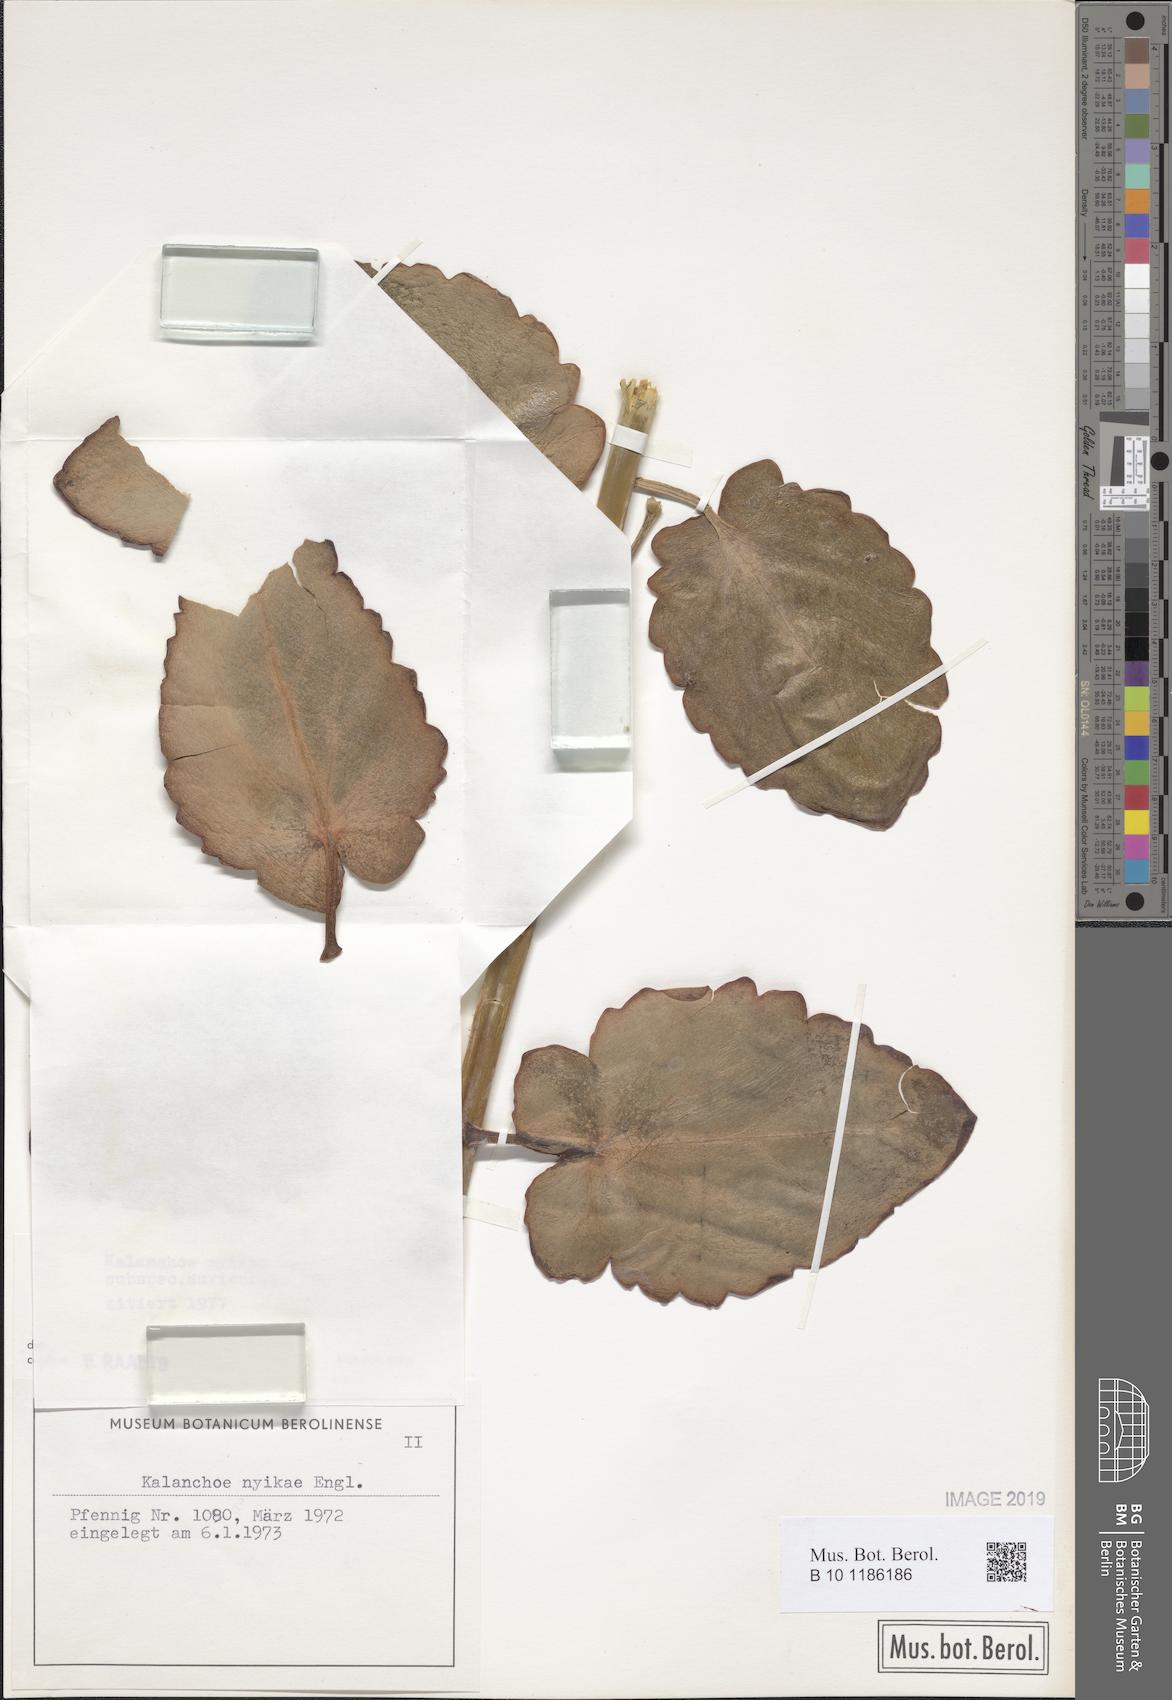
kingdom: Plantae
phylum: Tracheophyta
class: Magnoliopsida
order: Saxifragales
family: Crassulaceae
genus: Kalanchoe
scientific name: Kalanchoe auriculata
